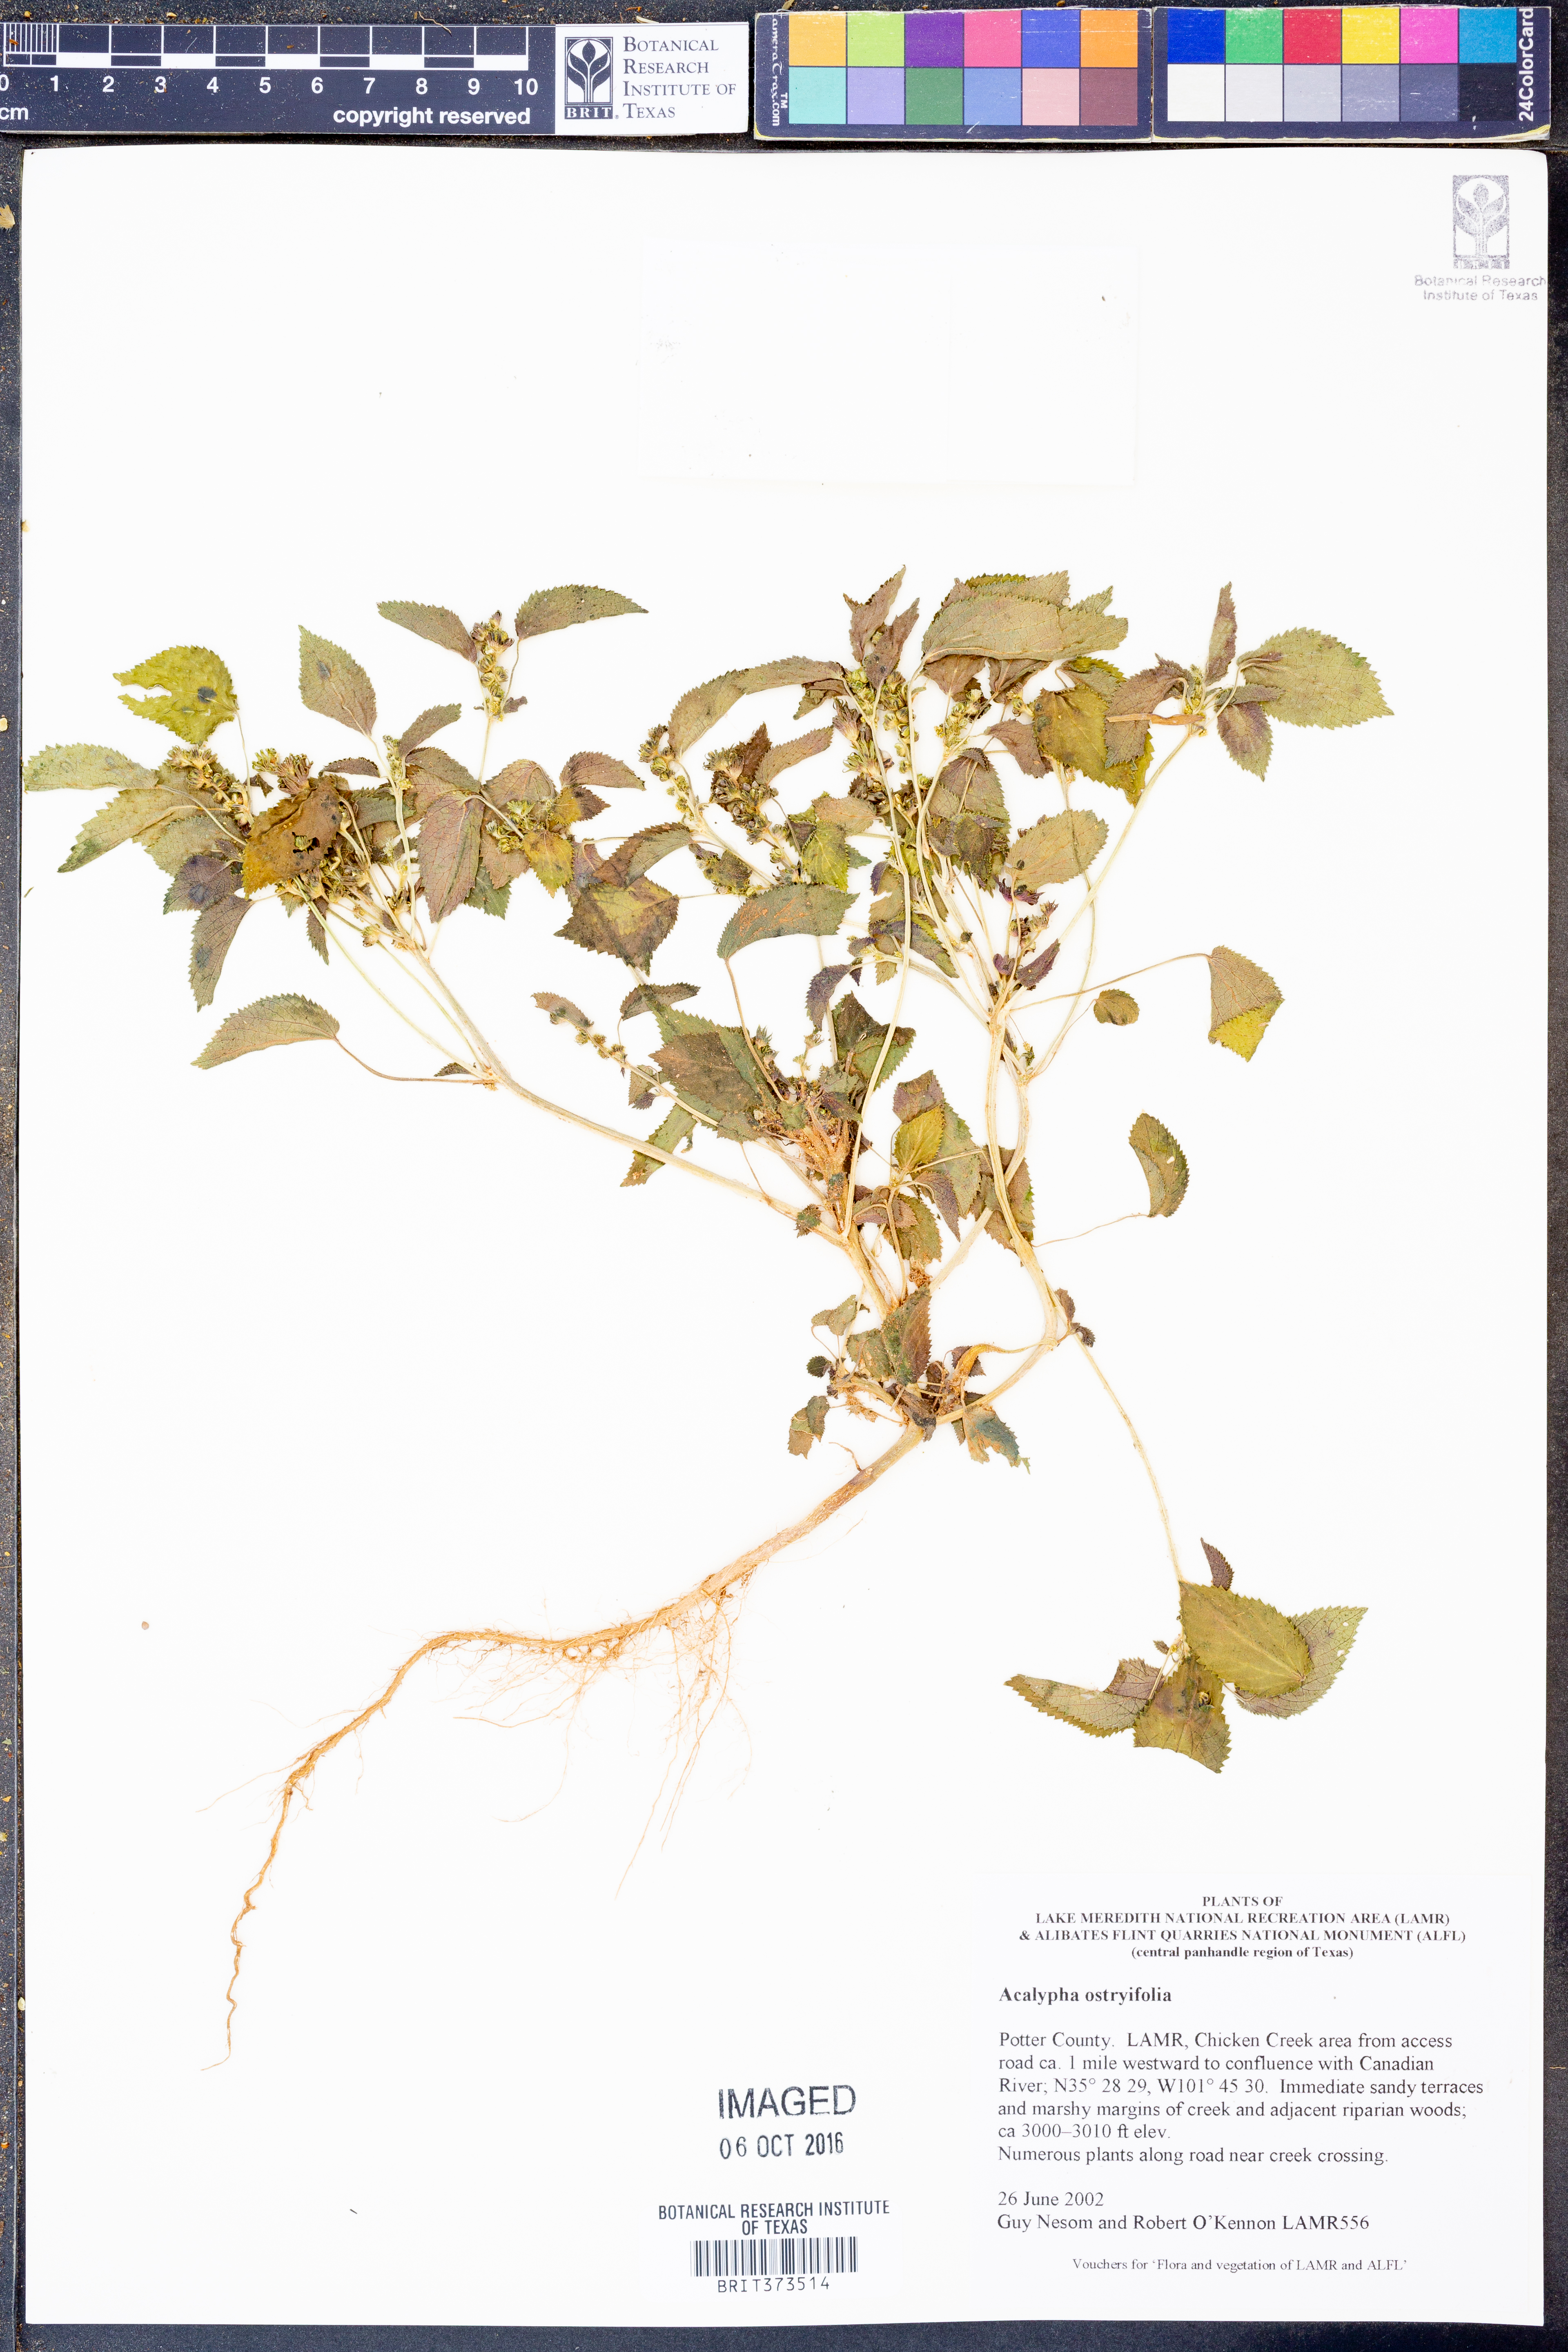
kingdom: Plantae
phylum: Tracheophyta
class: Magnoliopsida
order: Malpighiales
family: Euphorbiaceae
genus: Acalypha
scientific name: Acalypha persimilis
